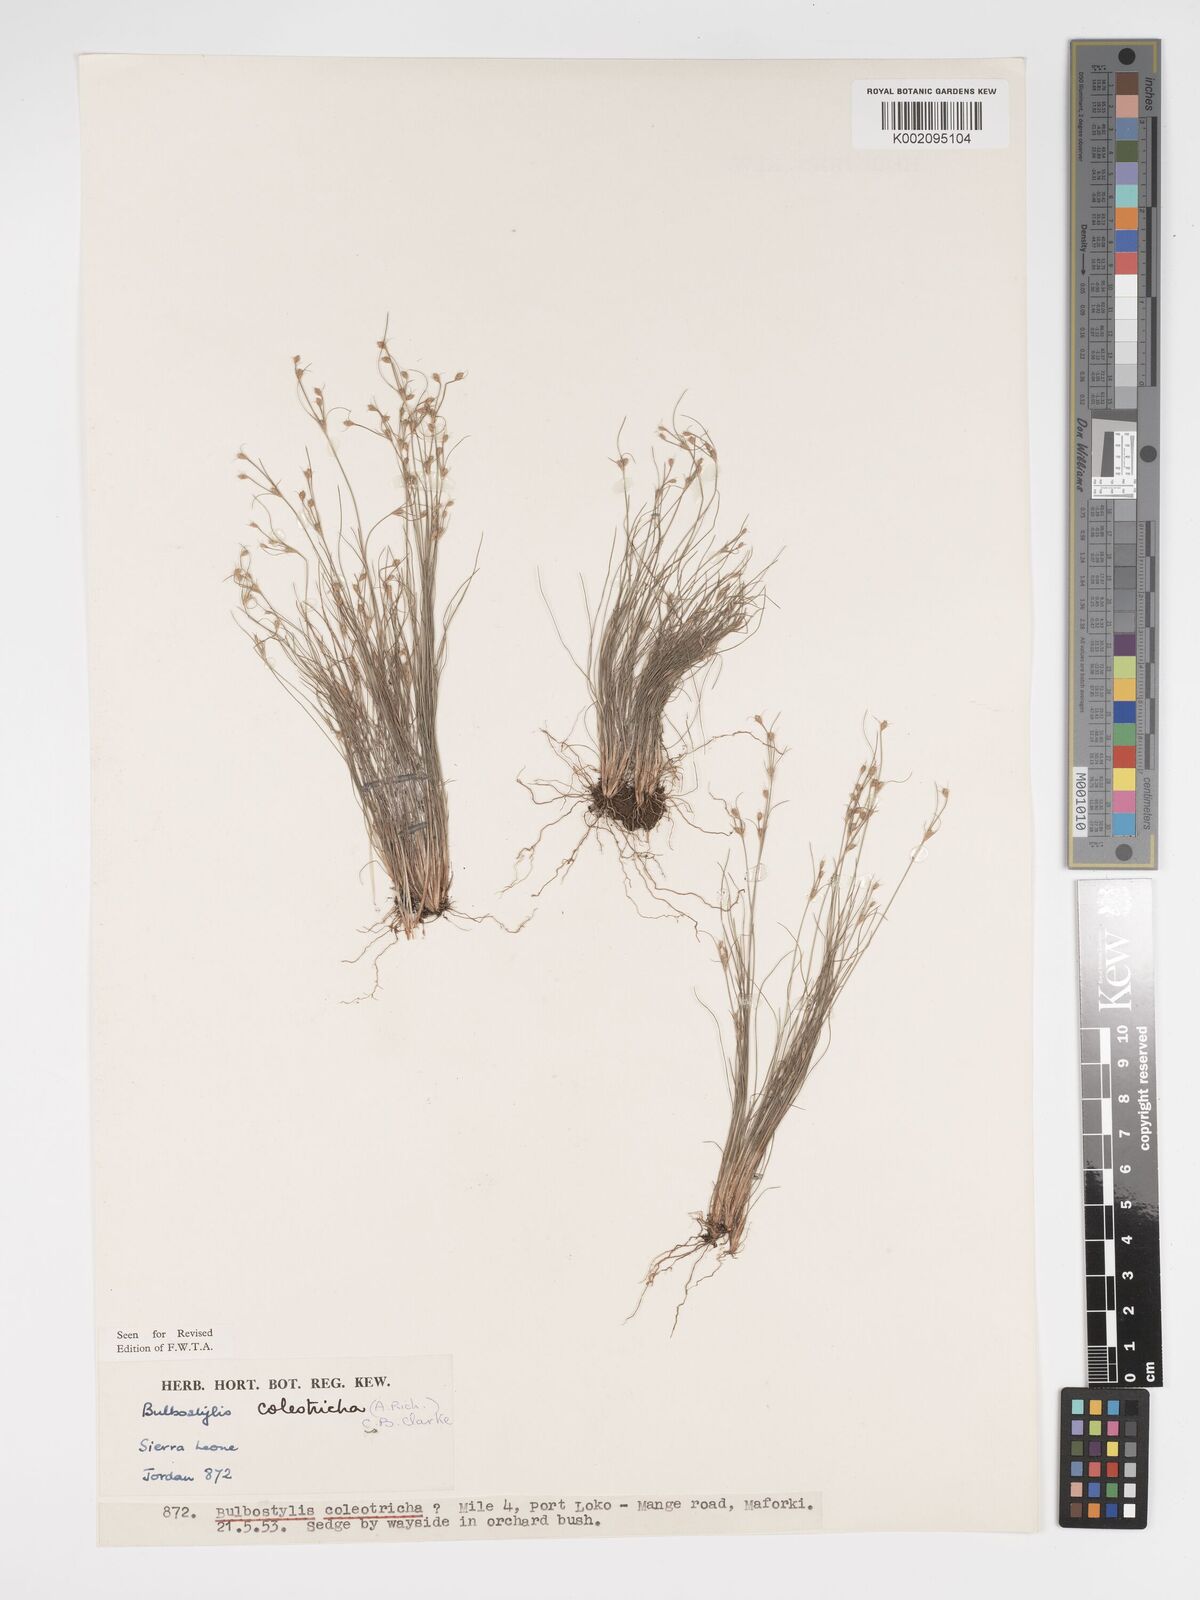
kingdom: Plantae
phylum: Tracheophyta
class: Liliopsida
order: Poales
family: Cyperaceae
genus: Bulbostylis
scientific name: Bulbostylis coleotricha
